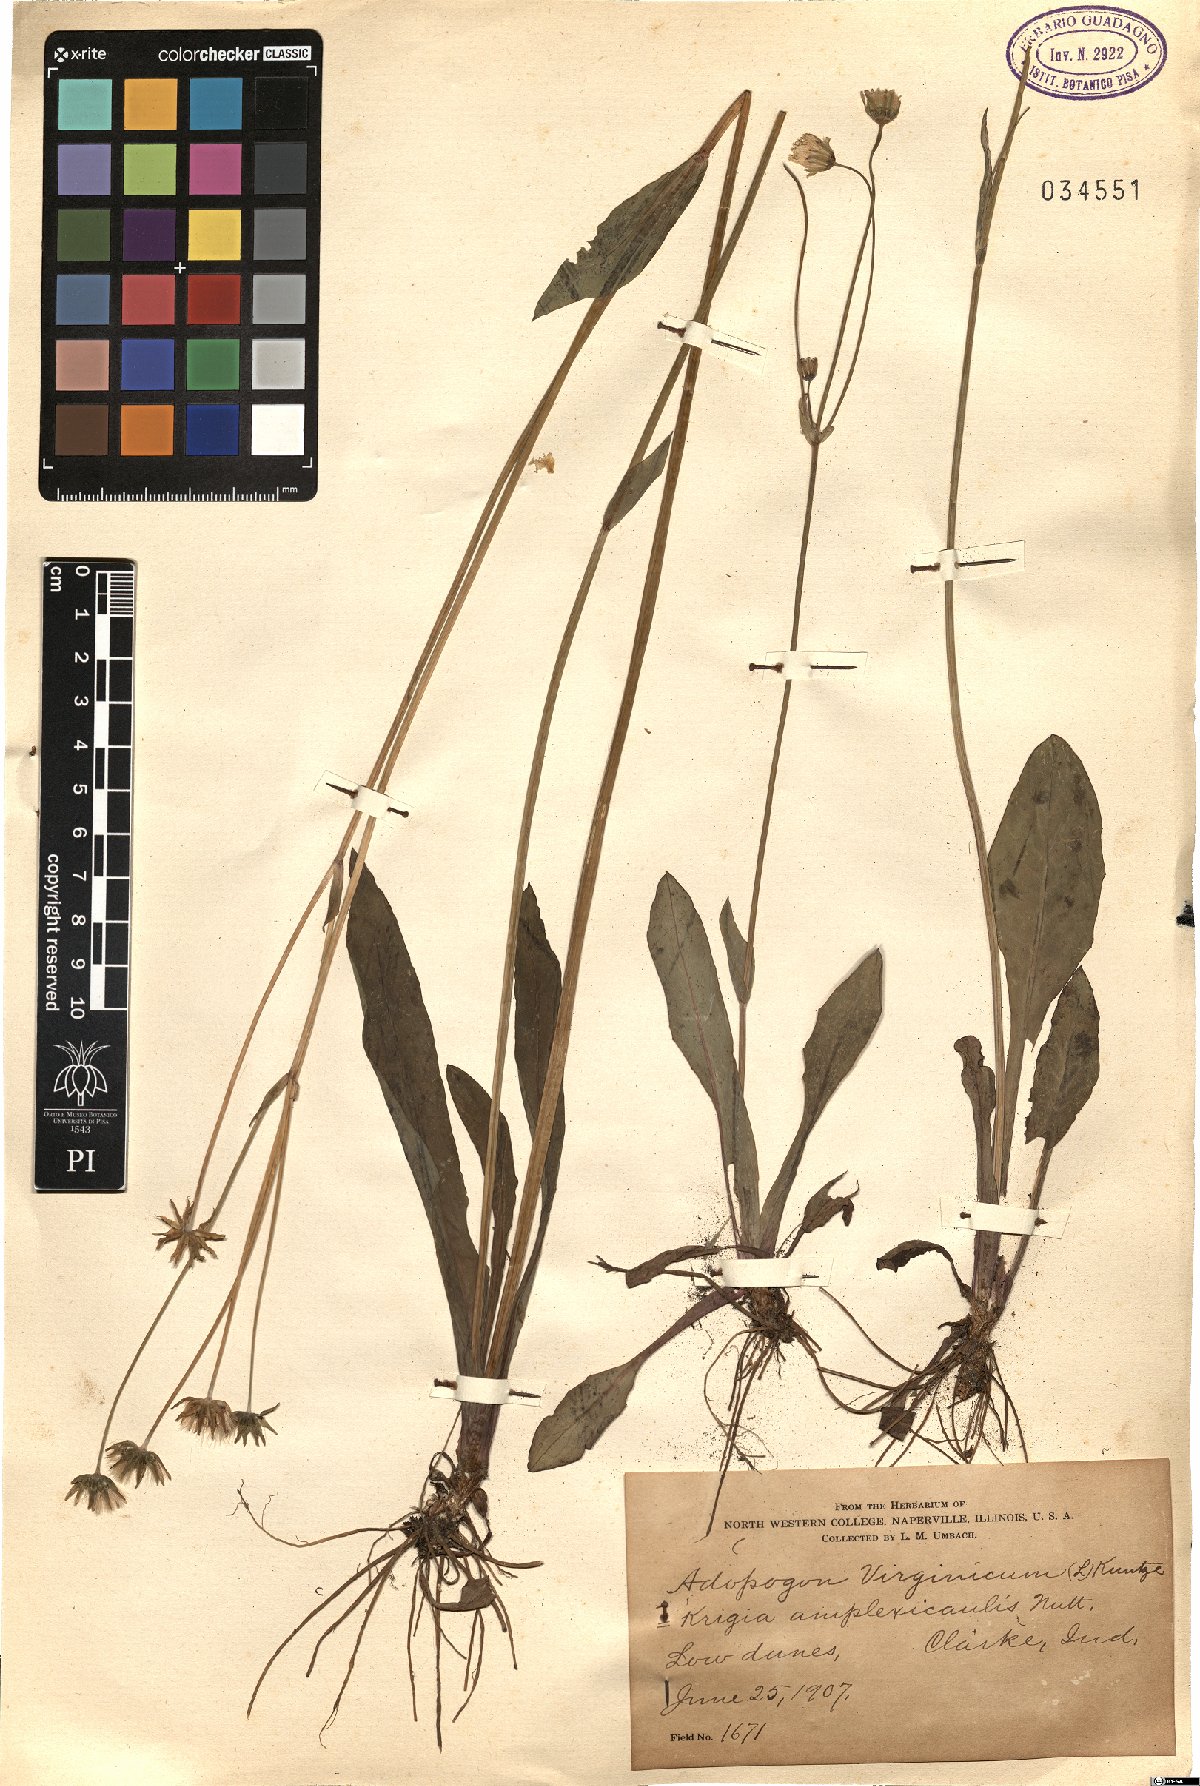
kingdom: Plantae
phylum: Tracheophyta
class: Magnoliopsida
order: Asterales
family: Asteraceae
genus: Krigia
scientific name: Krigia virginica
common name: Virginia dwarf-dandelion
